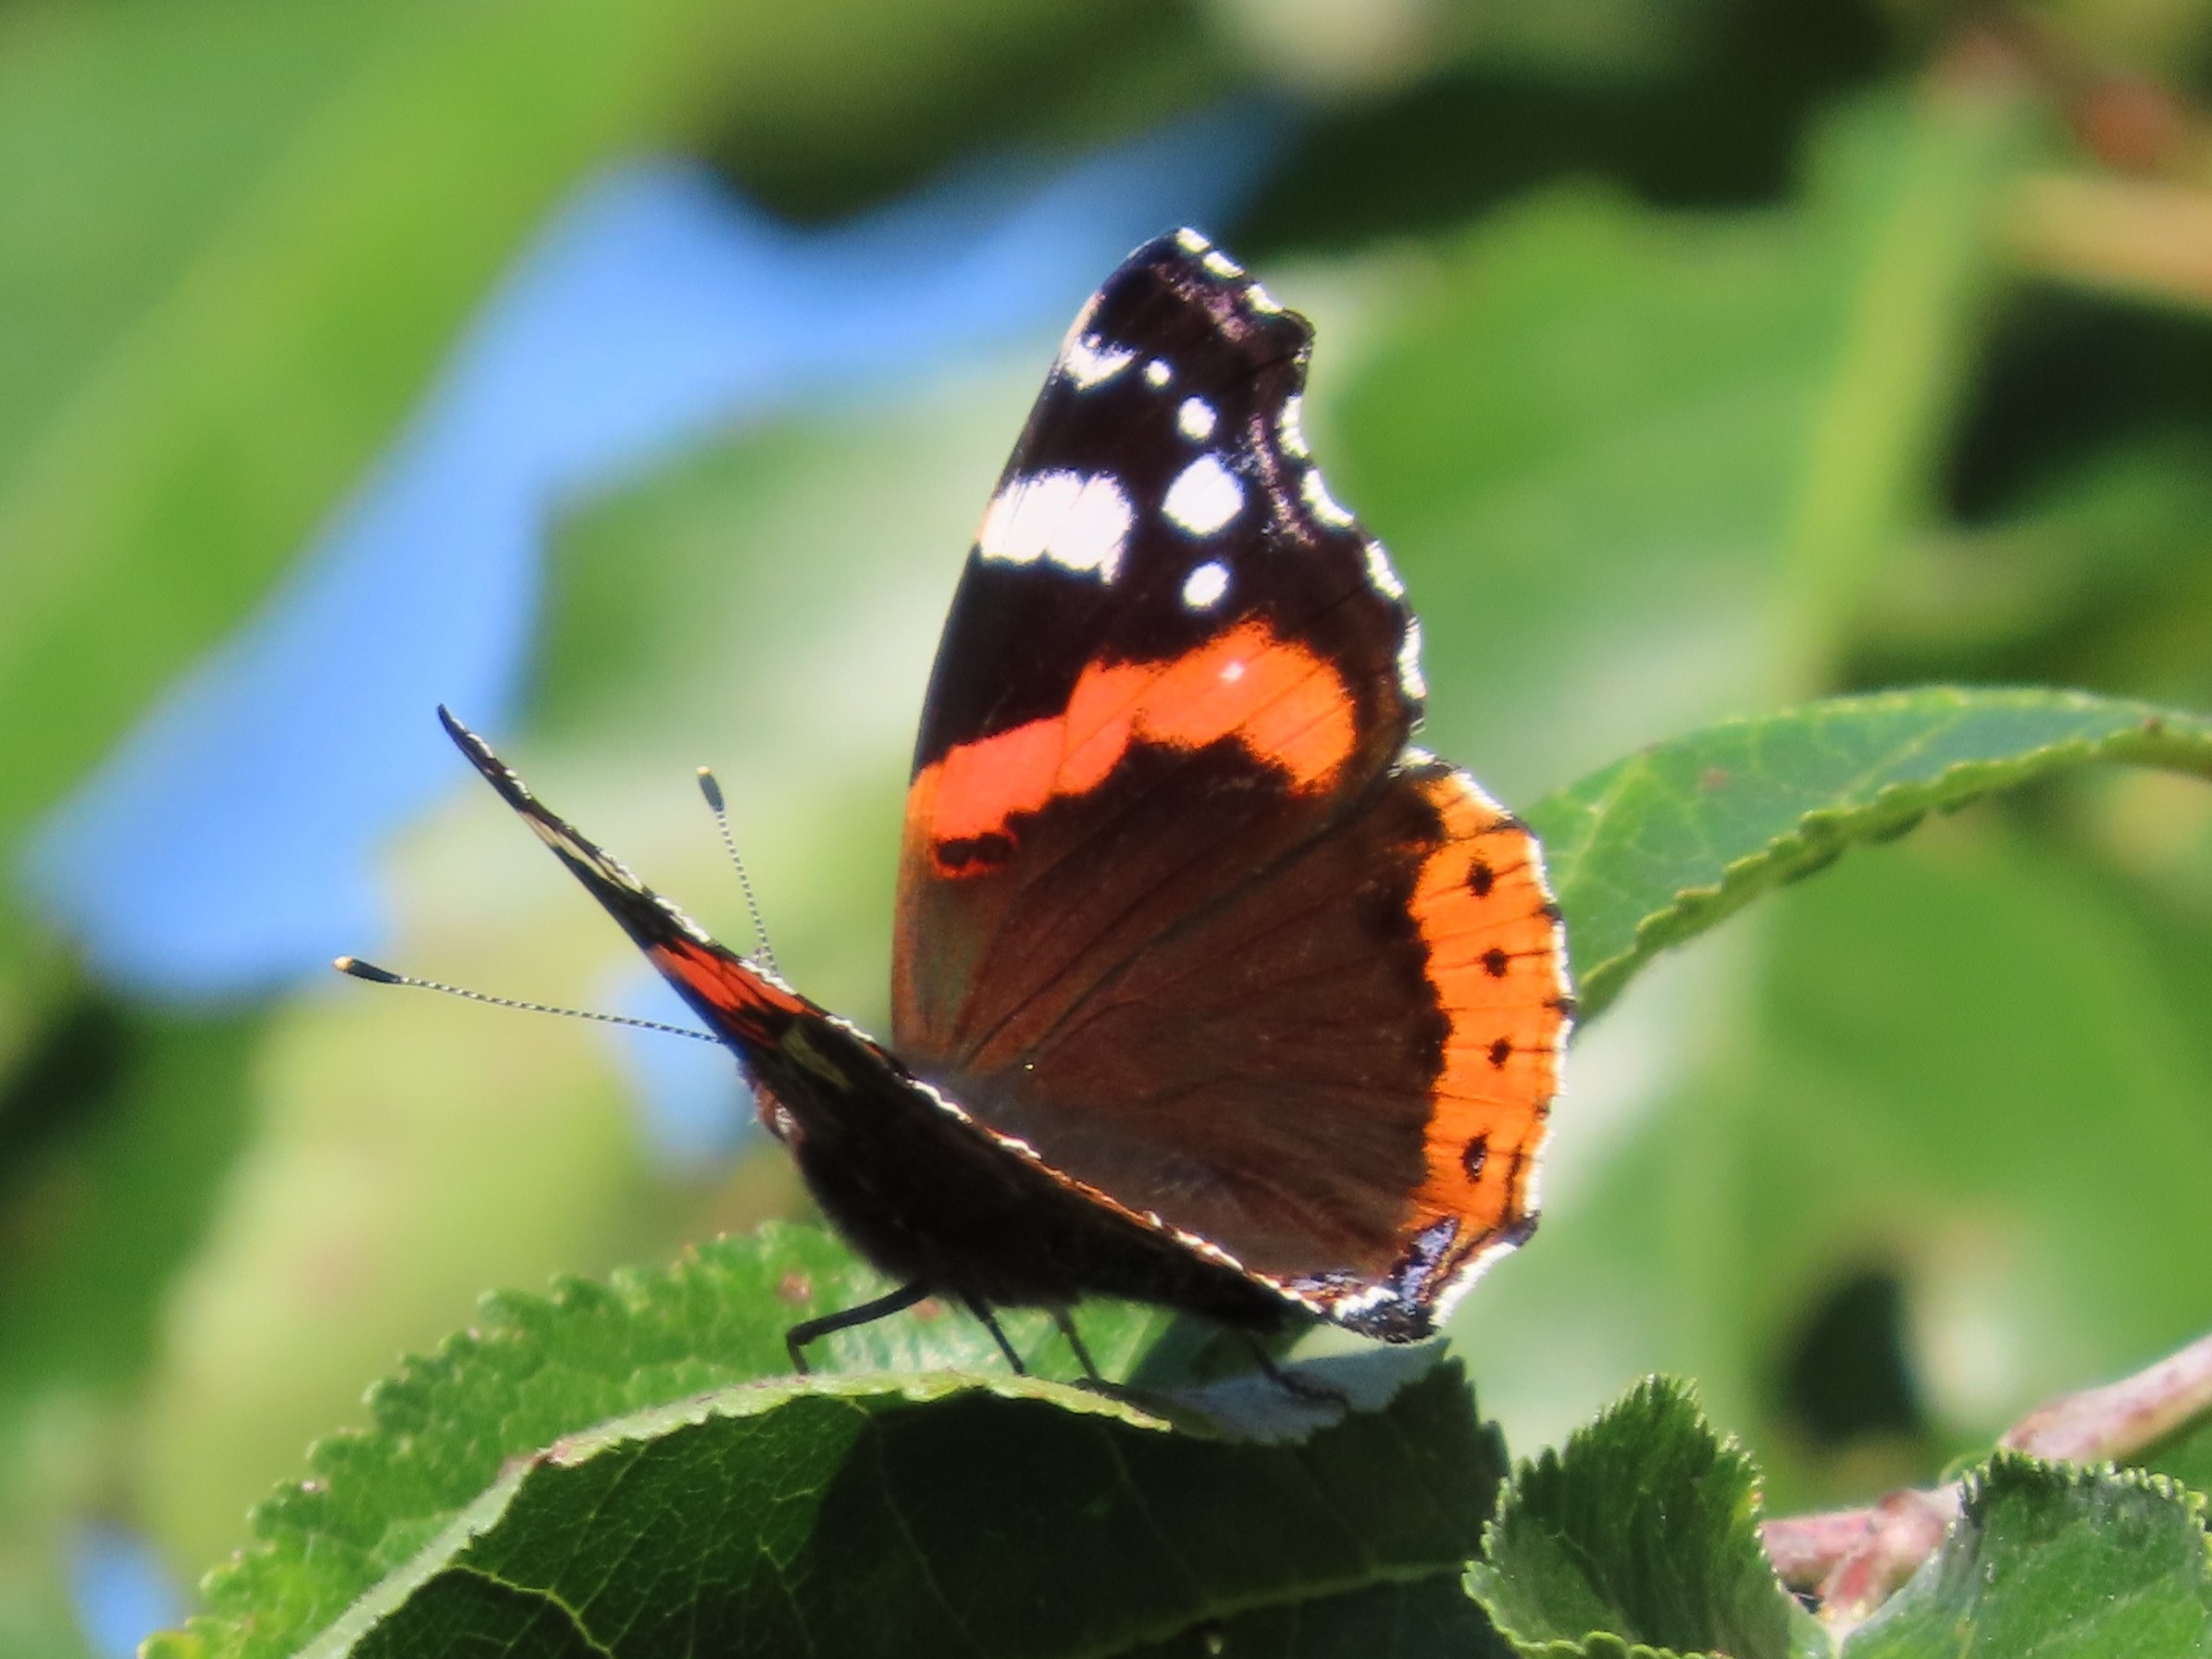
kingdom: Animalia
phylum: Arthropoda
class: Insecta
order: Lepidoptera
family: Nymphalidae
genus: Vanessa
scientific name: Vanessa atalanta
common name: Admiral
